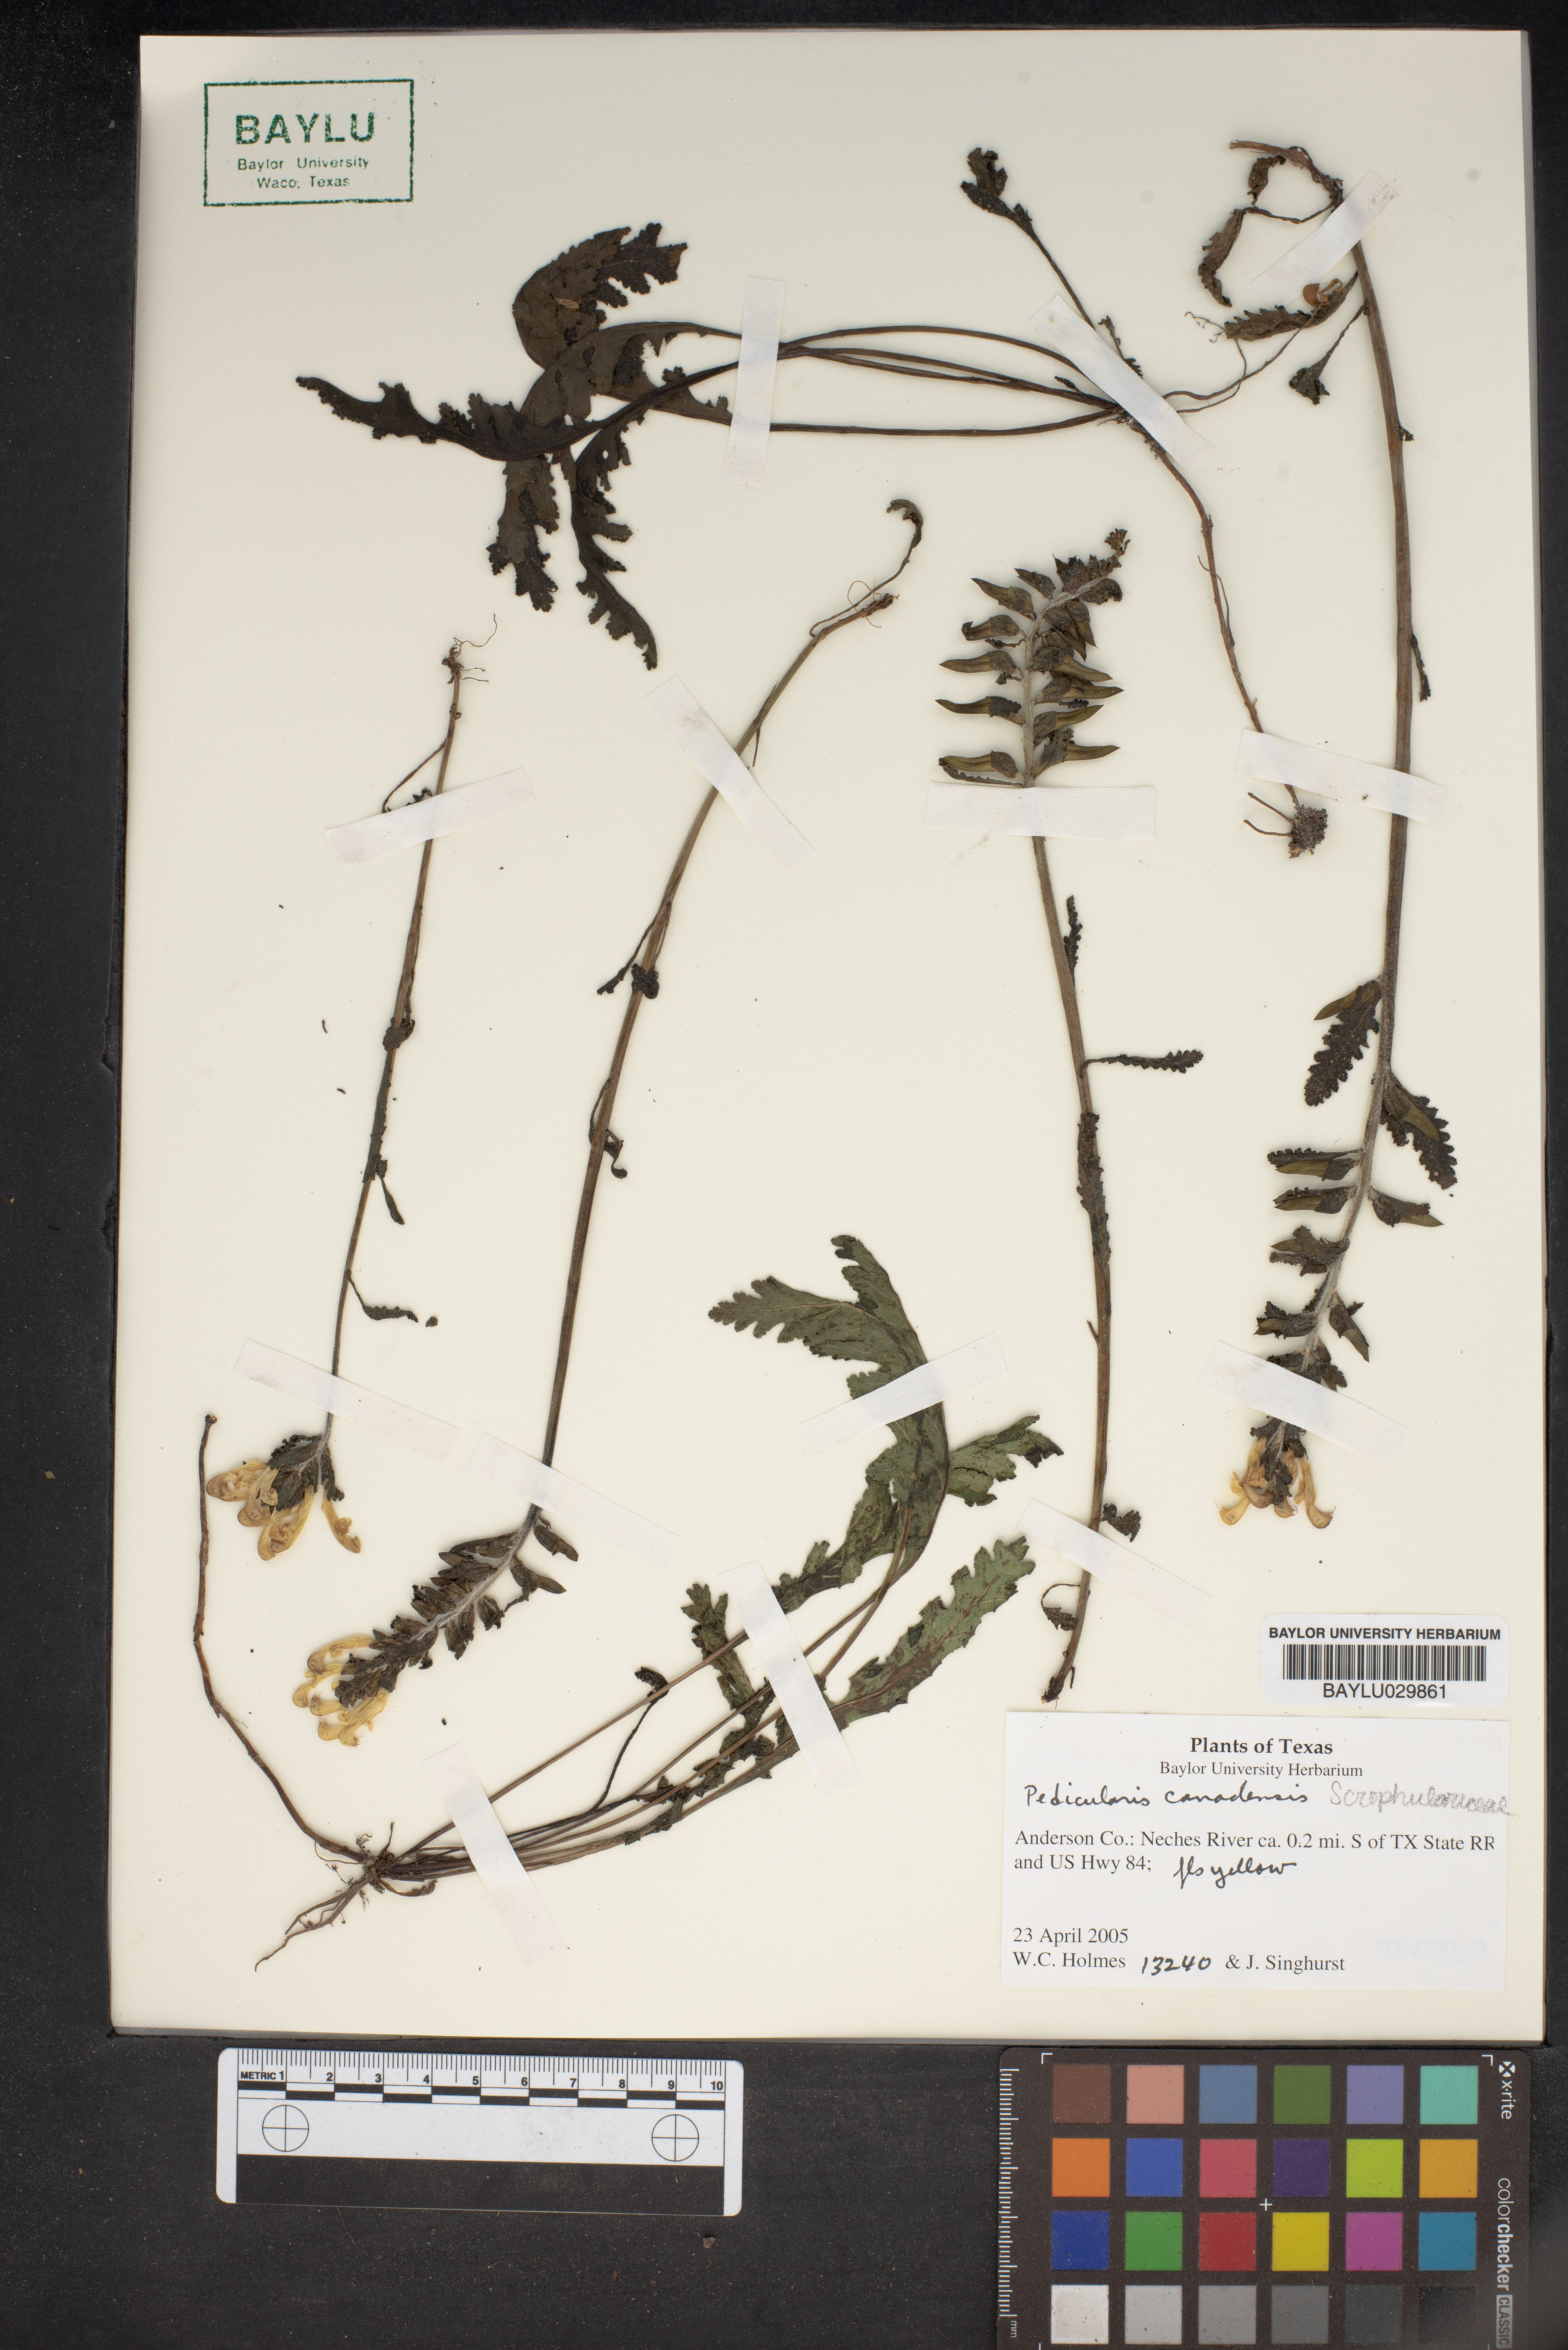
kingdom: Plantae
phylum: Tracheophyta
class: Magnoliopsida
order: Lamiales
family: Orobanchaceae
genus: Pedicularis
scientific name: Pedicularis canadensis
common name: Early lousewort
